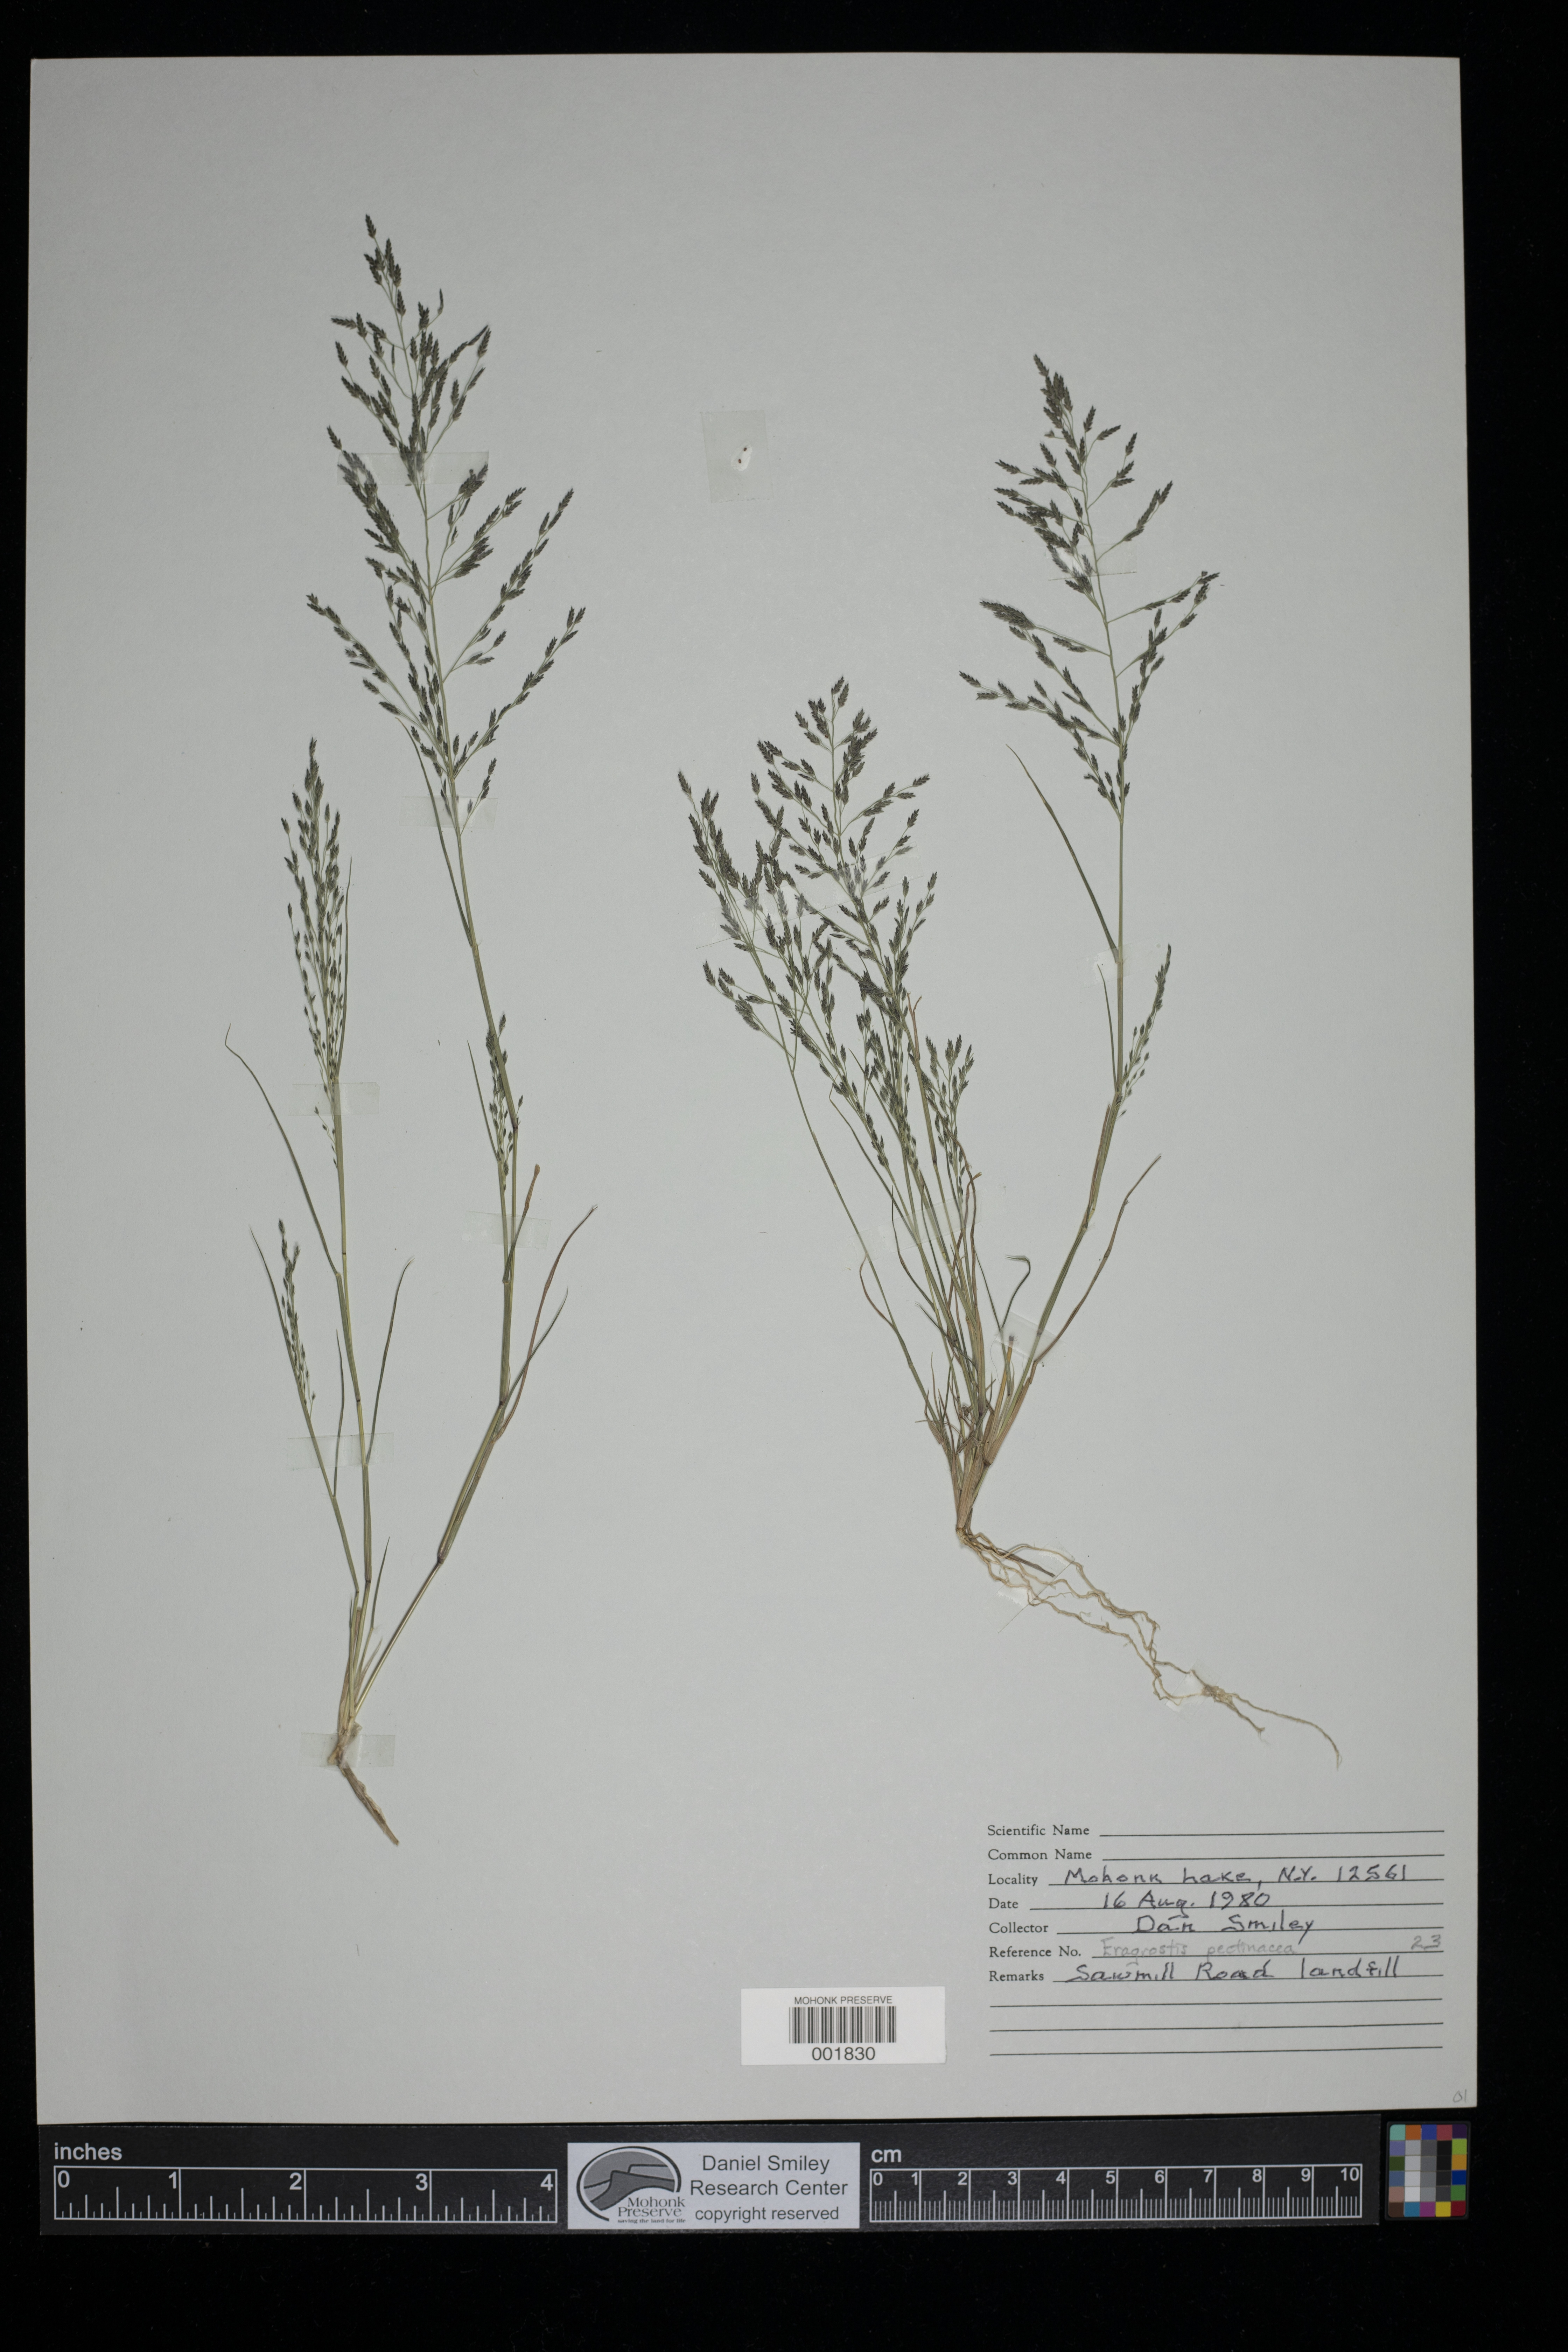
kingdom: Plantae
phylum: Tracheophyta
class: Liliopsida
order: Poales
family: Poaceae
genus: Eragrostis
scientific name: Eragrostis pectinacea
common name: Tufted lovegrass
